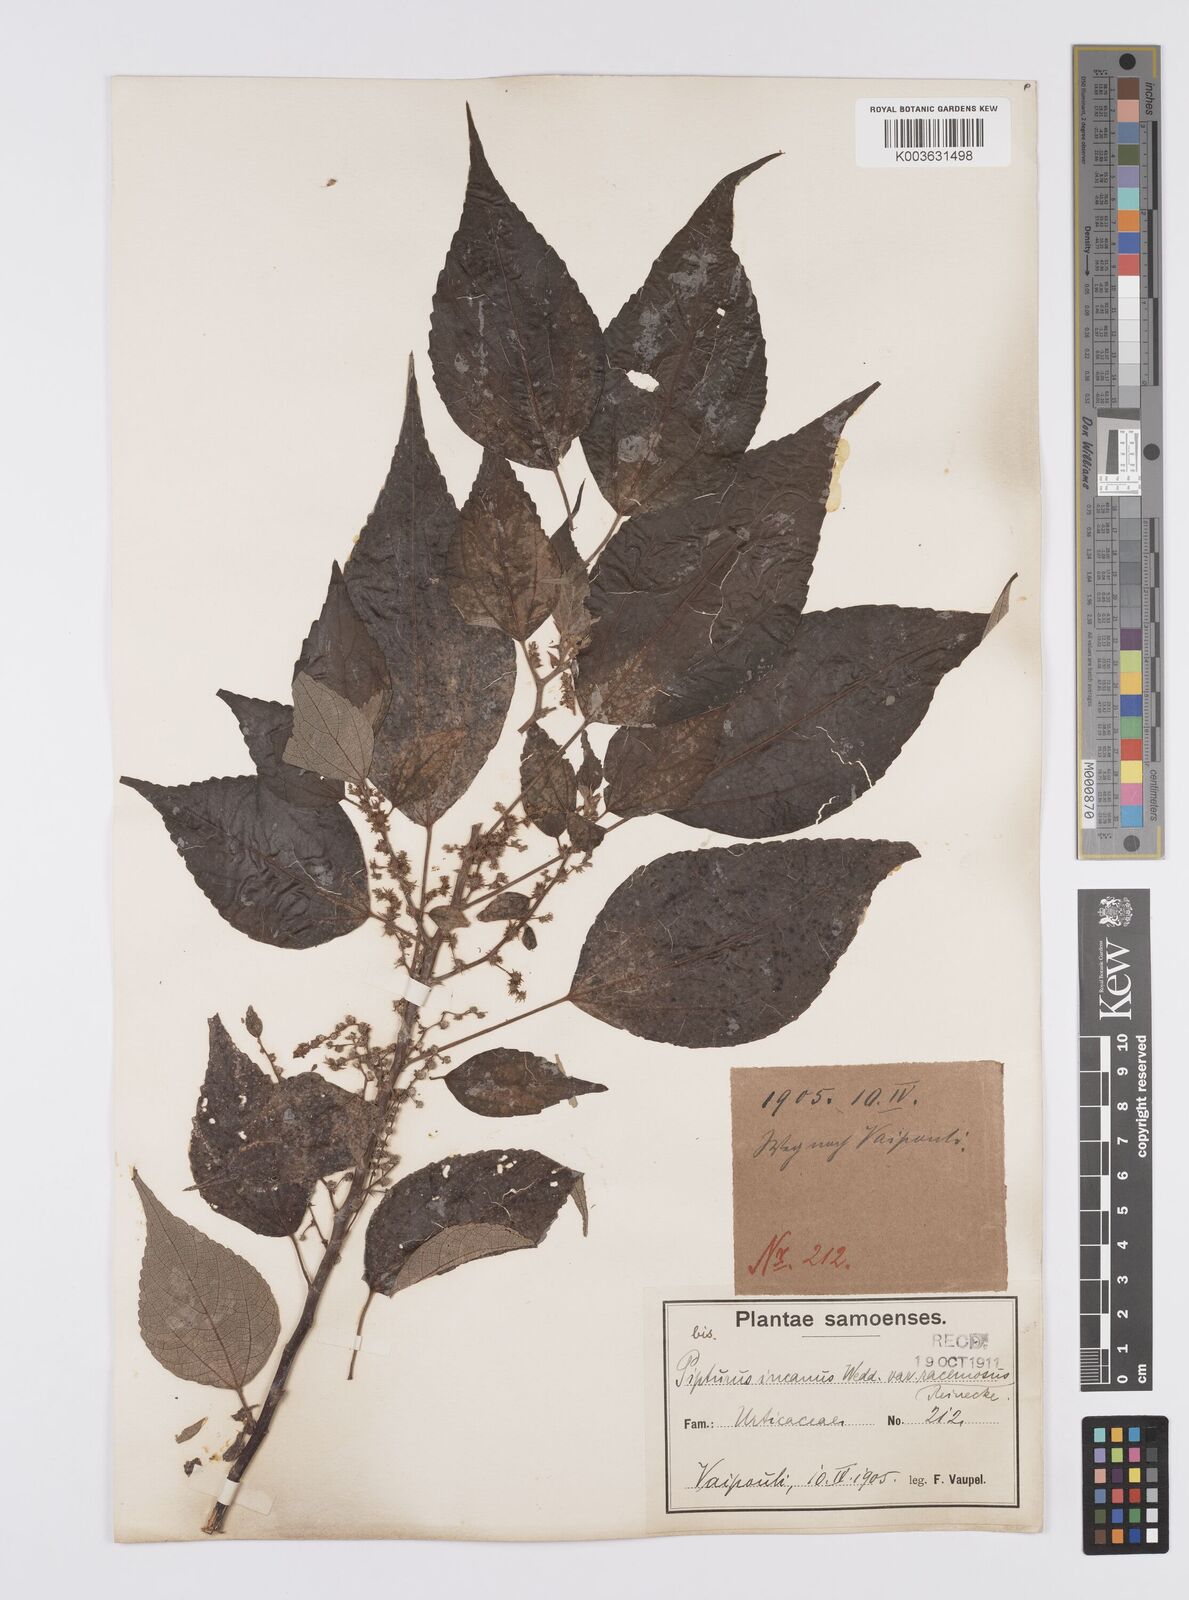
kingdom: Plantae
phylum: Tracheophyta
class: Magnoliopsida
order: Rosales
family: Urticaceae
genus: Pipturus
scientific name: Pipturus argenteus
